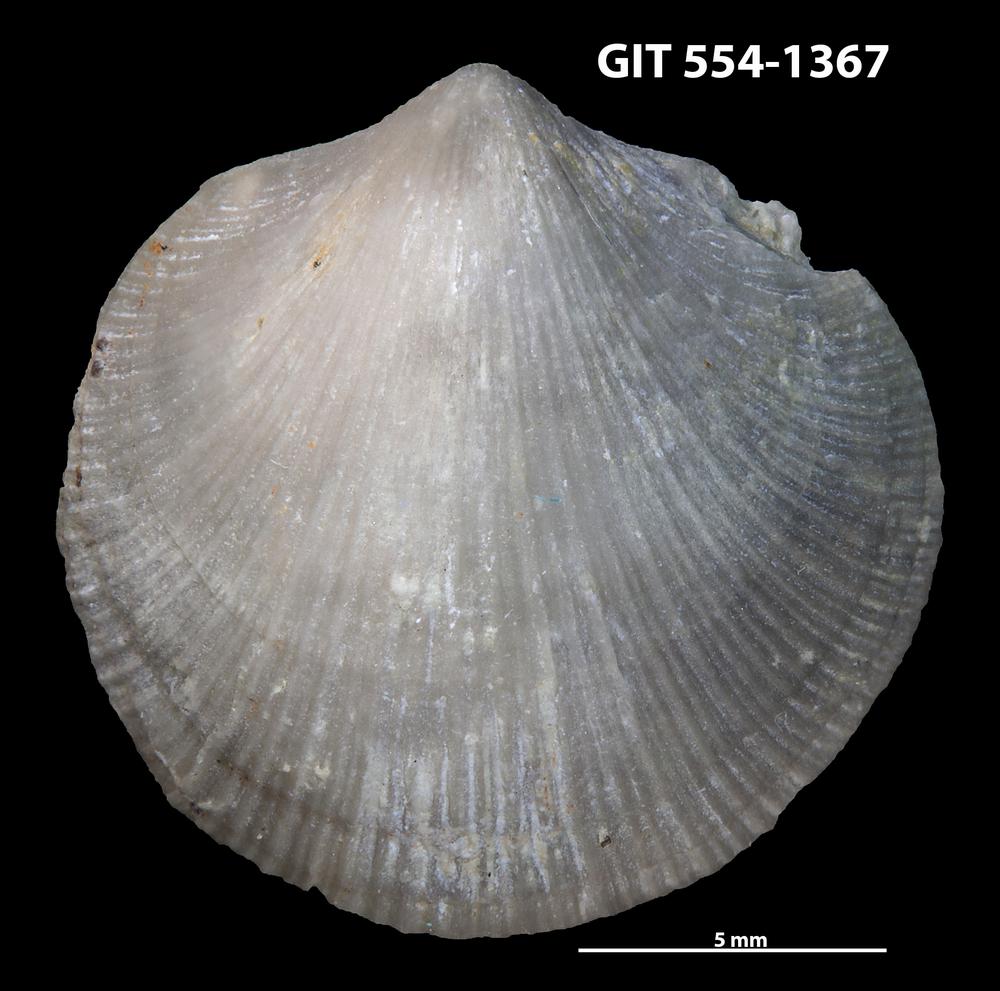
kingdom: Animalia
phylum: Brachiopoda
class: Rhynchonellata
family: Dalmanellidae
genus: Dalmanella
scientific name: Dalmanella cyclica
